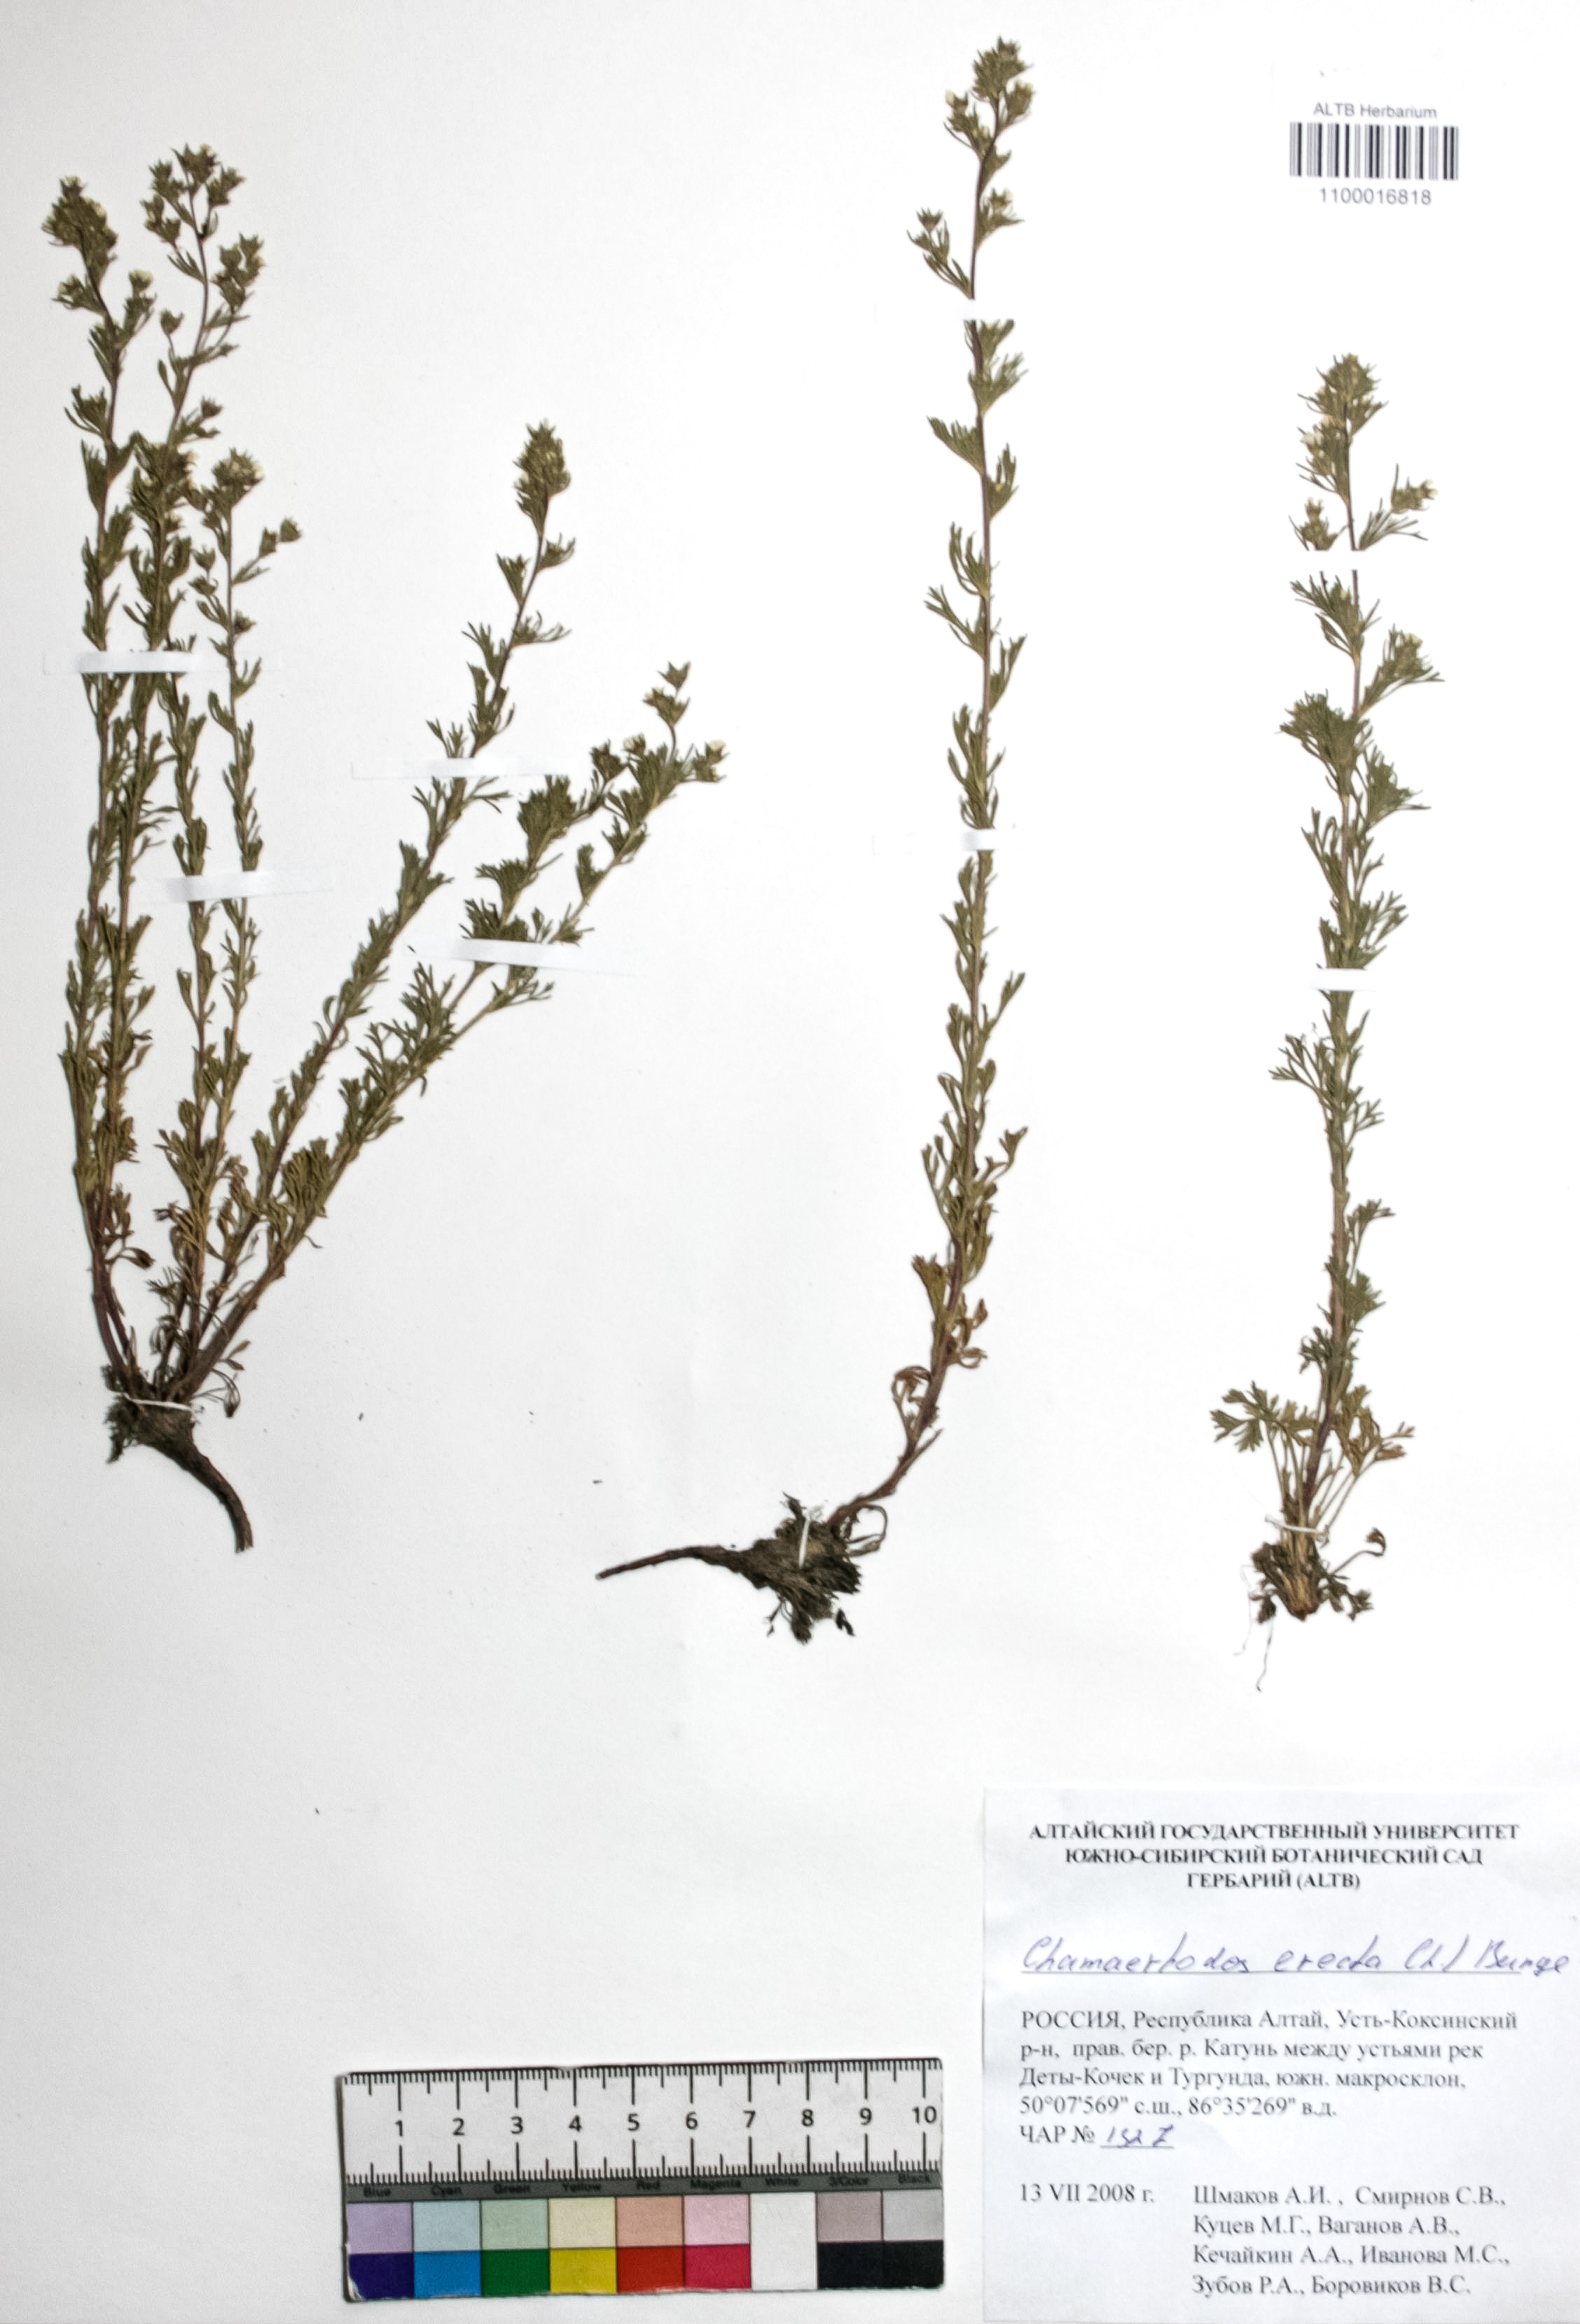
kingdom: Plantae
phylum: Tracheophyta
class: Magnoliopsida
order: Rosales
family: Rosaceae
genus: Chamaerhodos
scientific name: Chamaerhodos erecta
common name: American chamaerhodos
